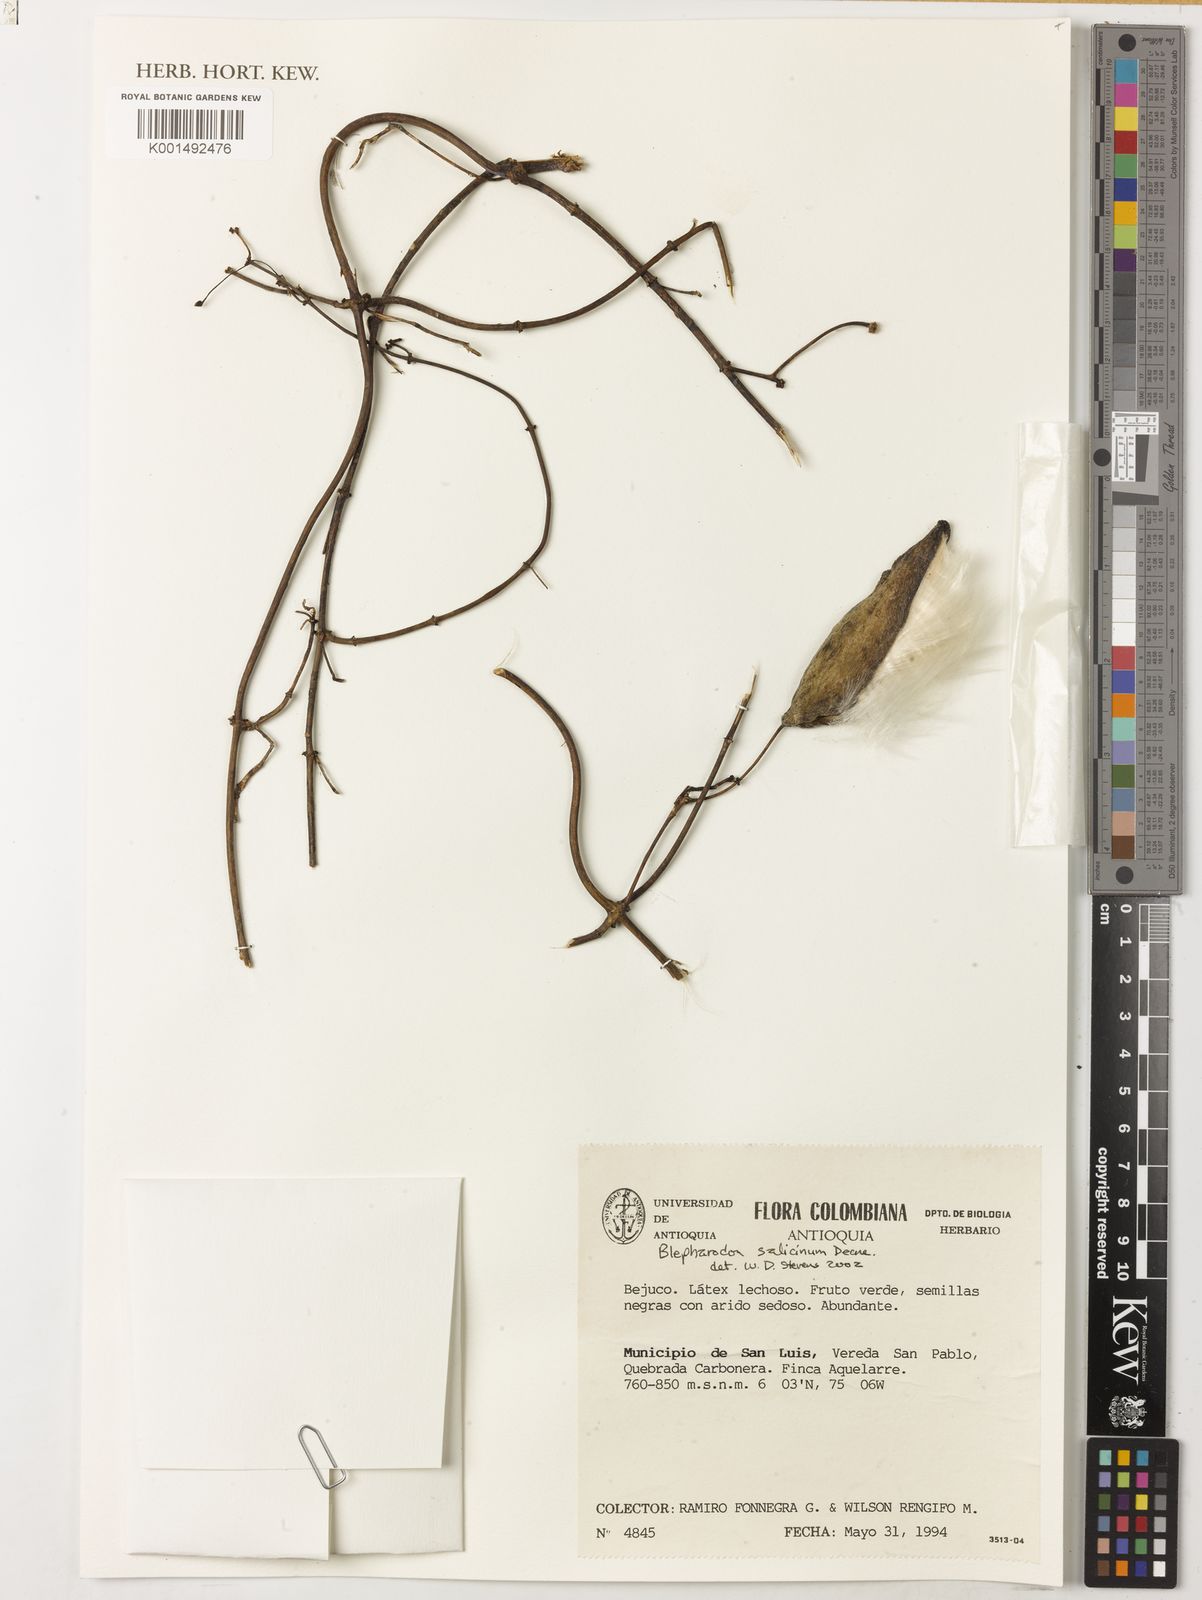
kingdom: Plantae
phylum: Tracheophyta
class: Magnoliopsida
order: Gentianales
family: Apocynaceae
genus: Vailia
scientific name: Vailia salicina
